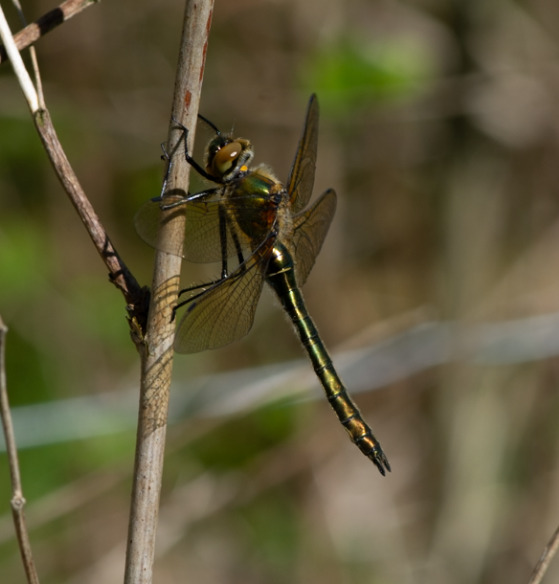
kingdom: Animalia
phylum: Arthropoda
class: Insecta
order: Odonata
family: Corduliidae
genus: Cordulia
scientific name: Cordulia aenea
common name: Grøn smaragdlibel
